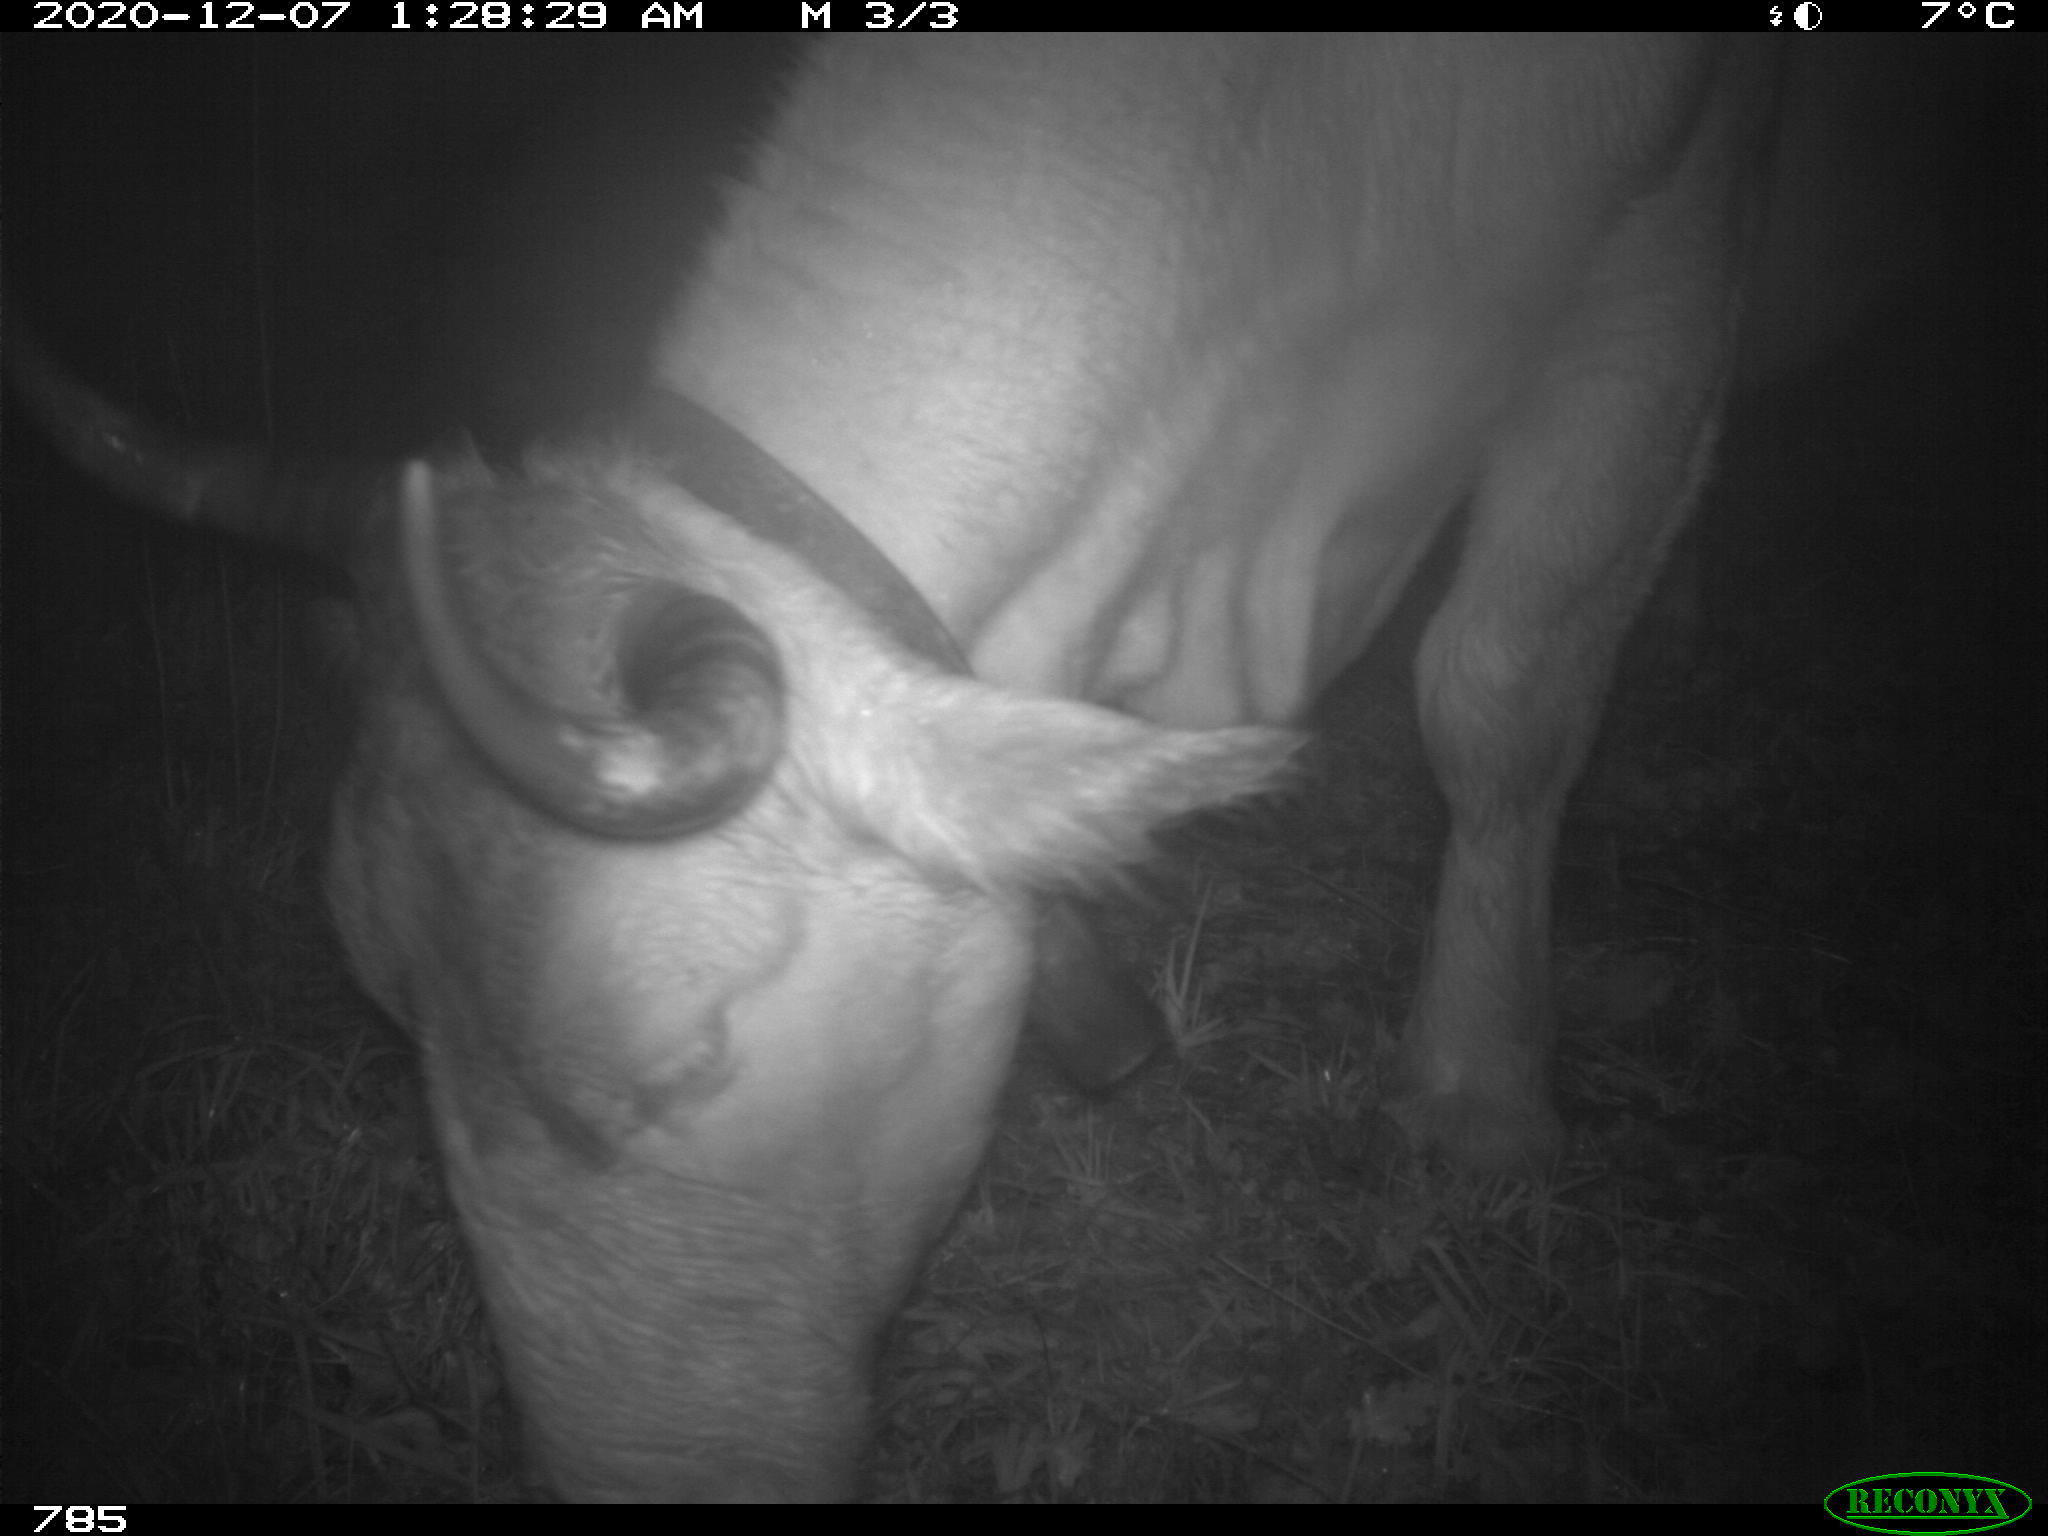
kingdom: Animalia
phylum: Chordata
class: Mammalia
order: Artiodactyla
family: Bovidae
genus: Bos
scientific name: Bos taurus
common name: Domesticated cattle
